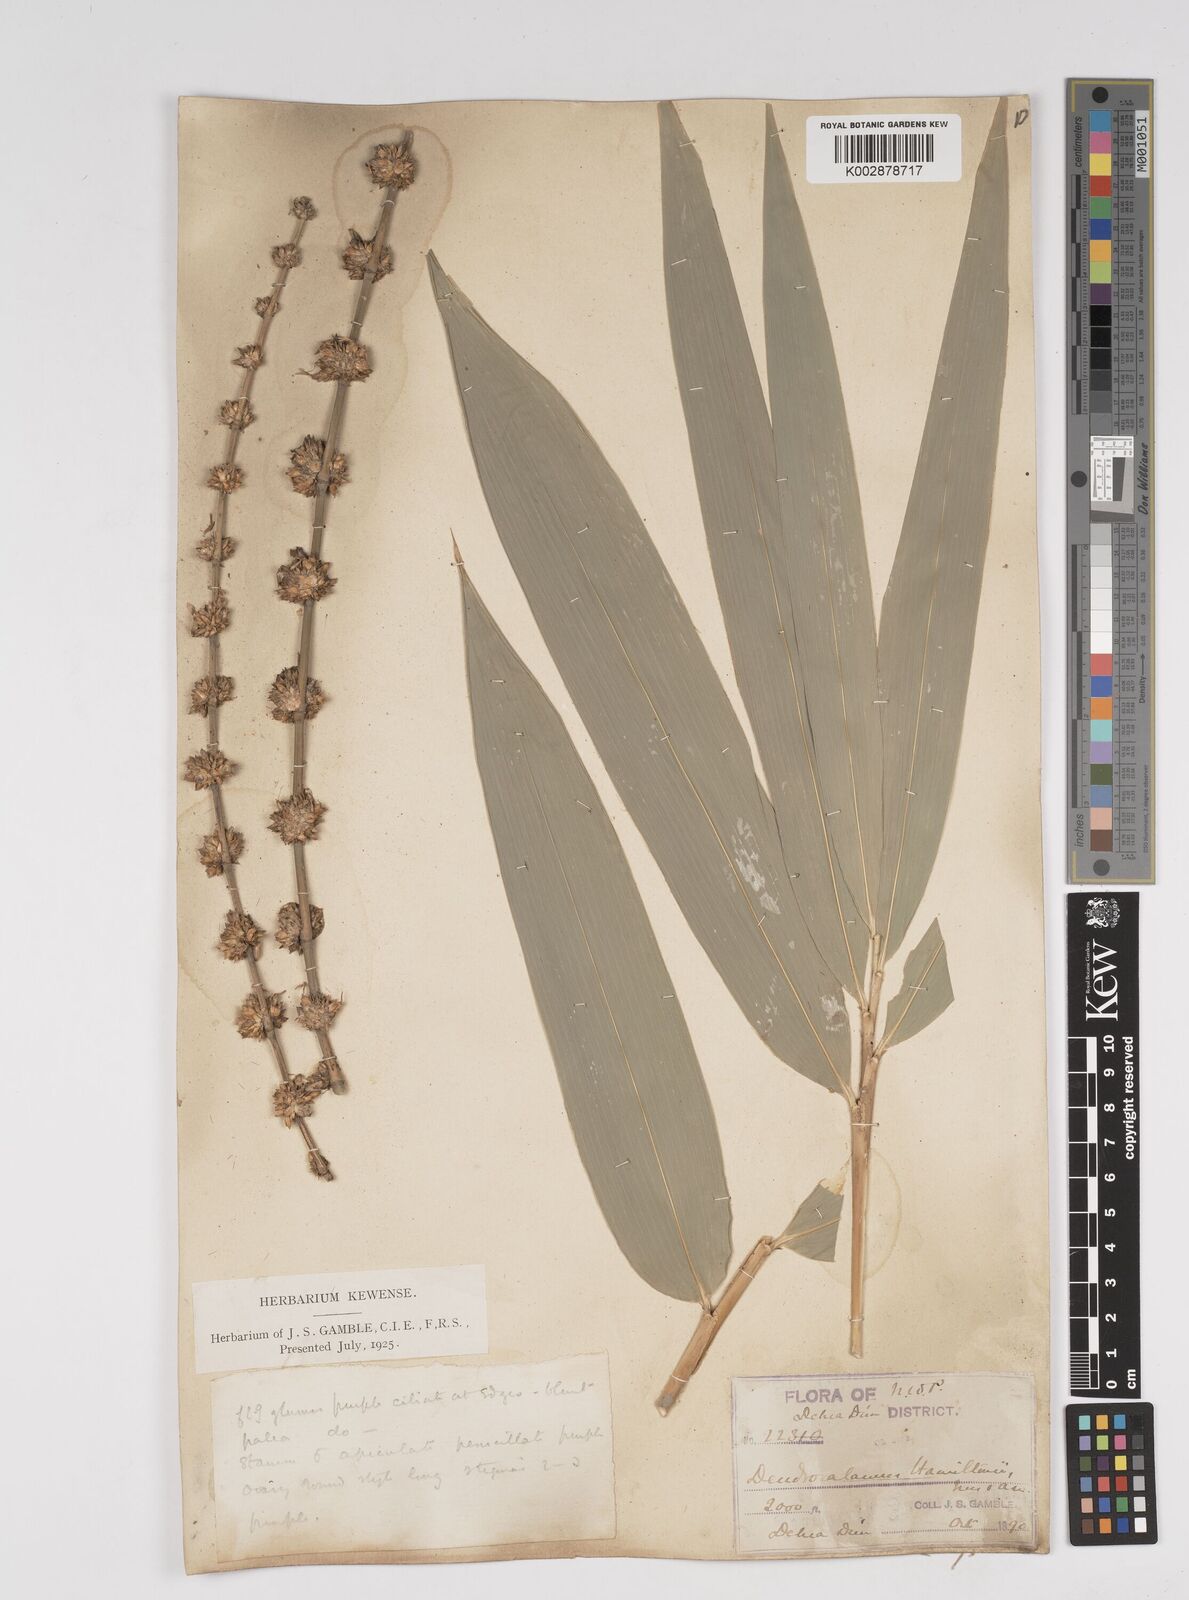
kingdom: Plantae
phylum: Tracheophyta
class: Liliopsida
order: Poales
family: Poaceae
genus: Dendrocalamus
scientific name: Dendrocalamus hamiltonii
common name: Tama bamboo
